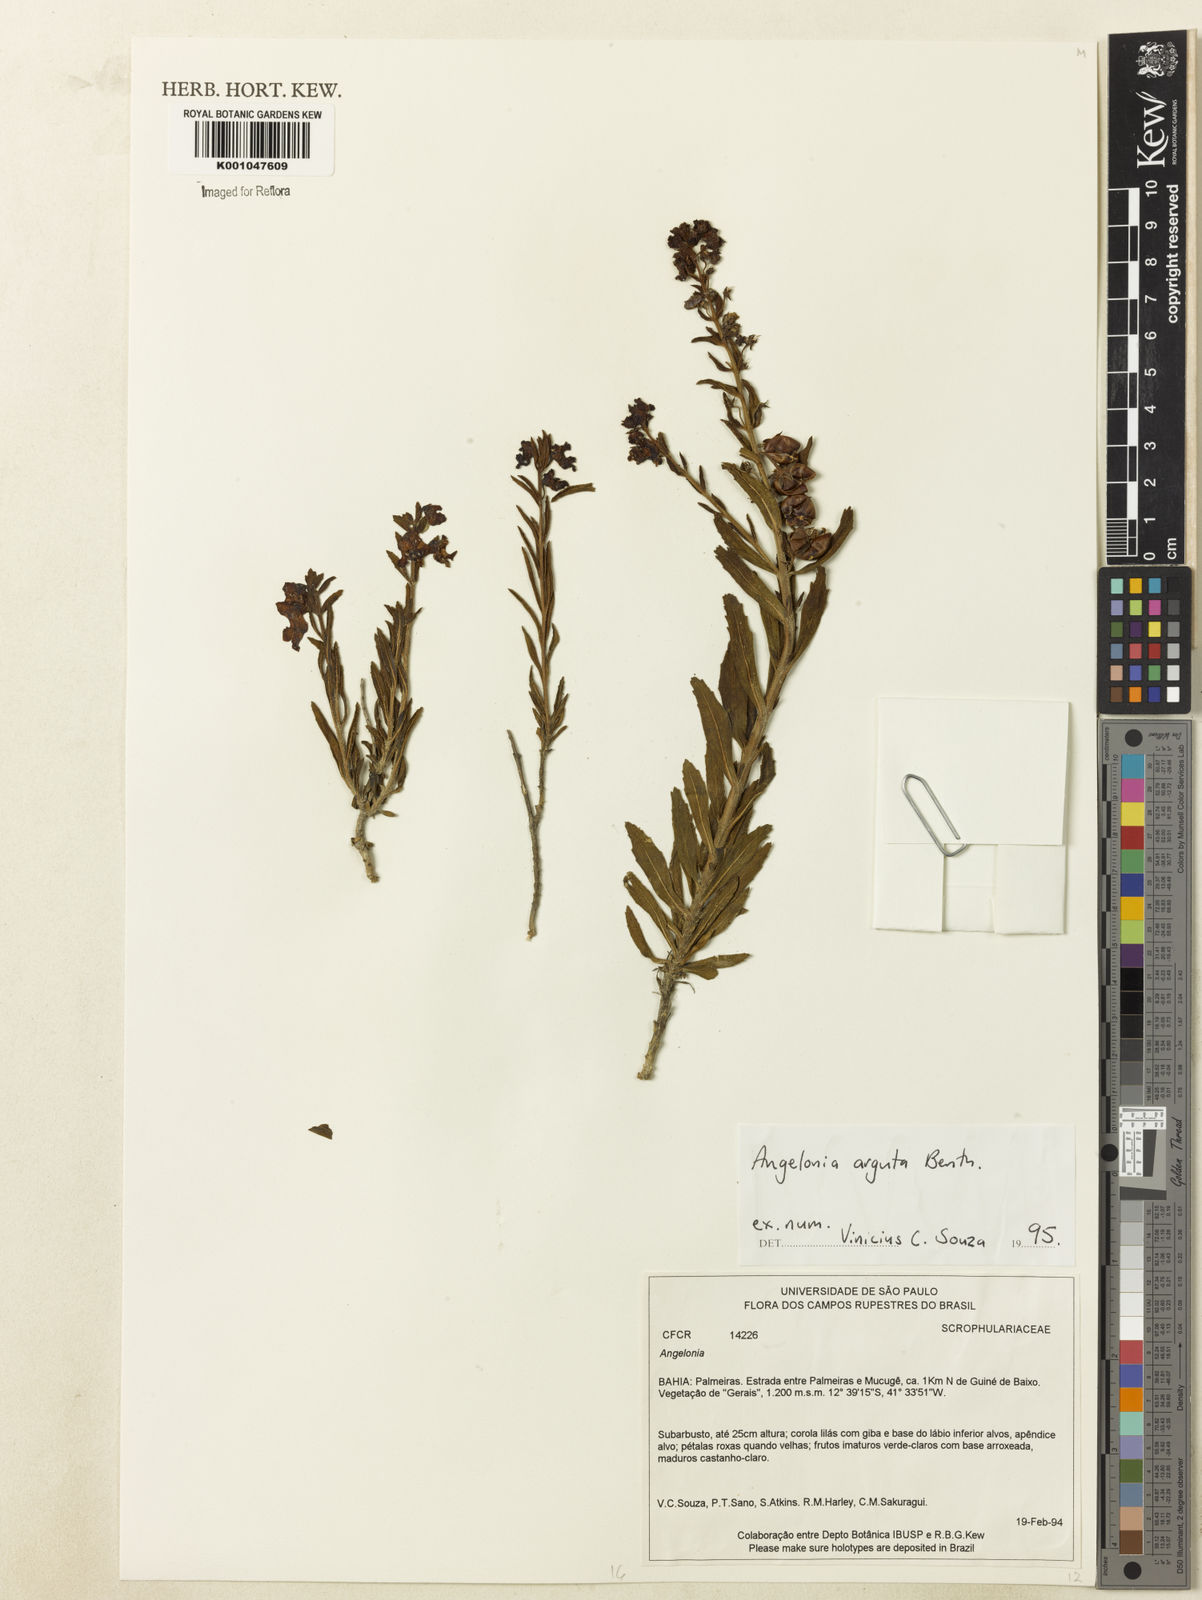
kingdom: Plantae
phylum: Tracheophyta
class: Magnoliopsida
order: Lamiales
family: Plantaginaceae
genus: Angelonia
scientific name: Angelonia arguta
